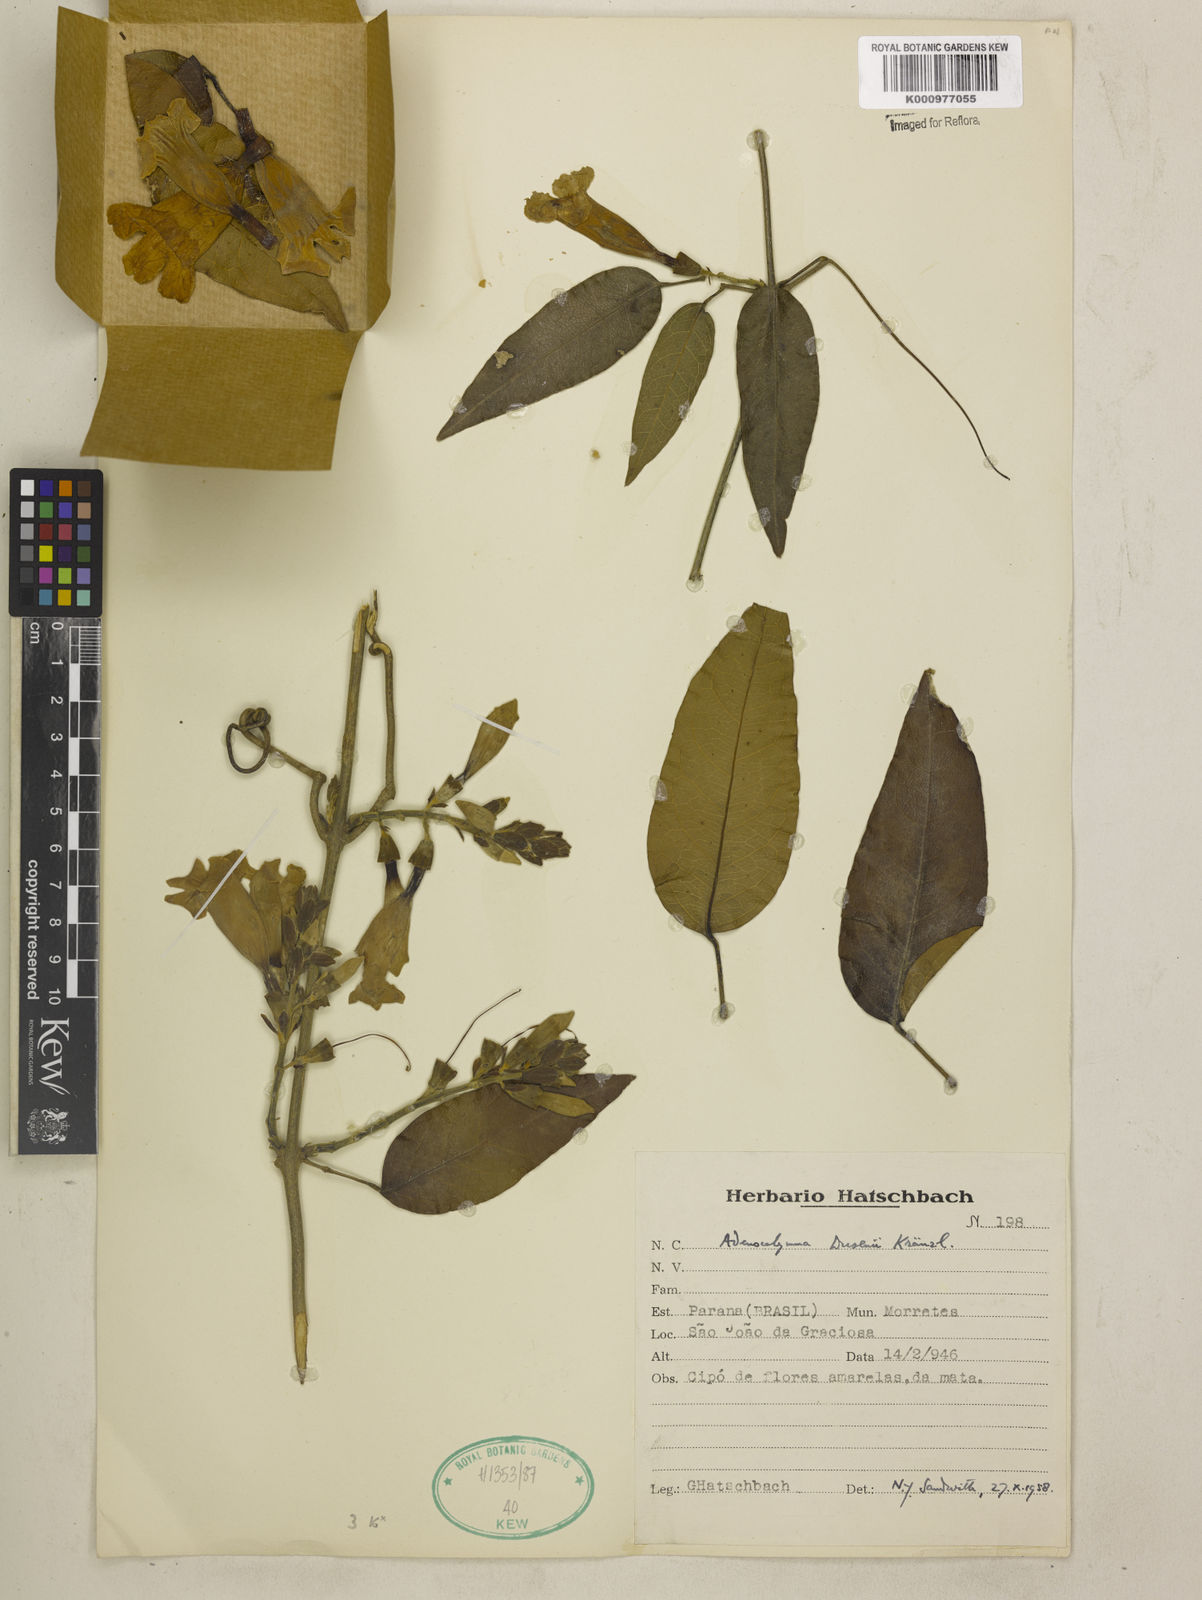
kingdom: Plantae
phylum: Tracheophyta
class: Magnoliopsida
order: Lamiales
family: Bignoniaceae
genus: Adenocalymma
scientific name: Adenocalymma dusenii
